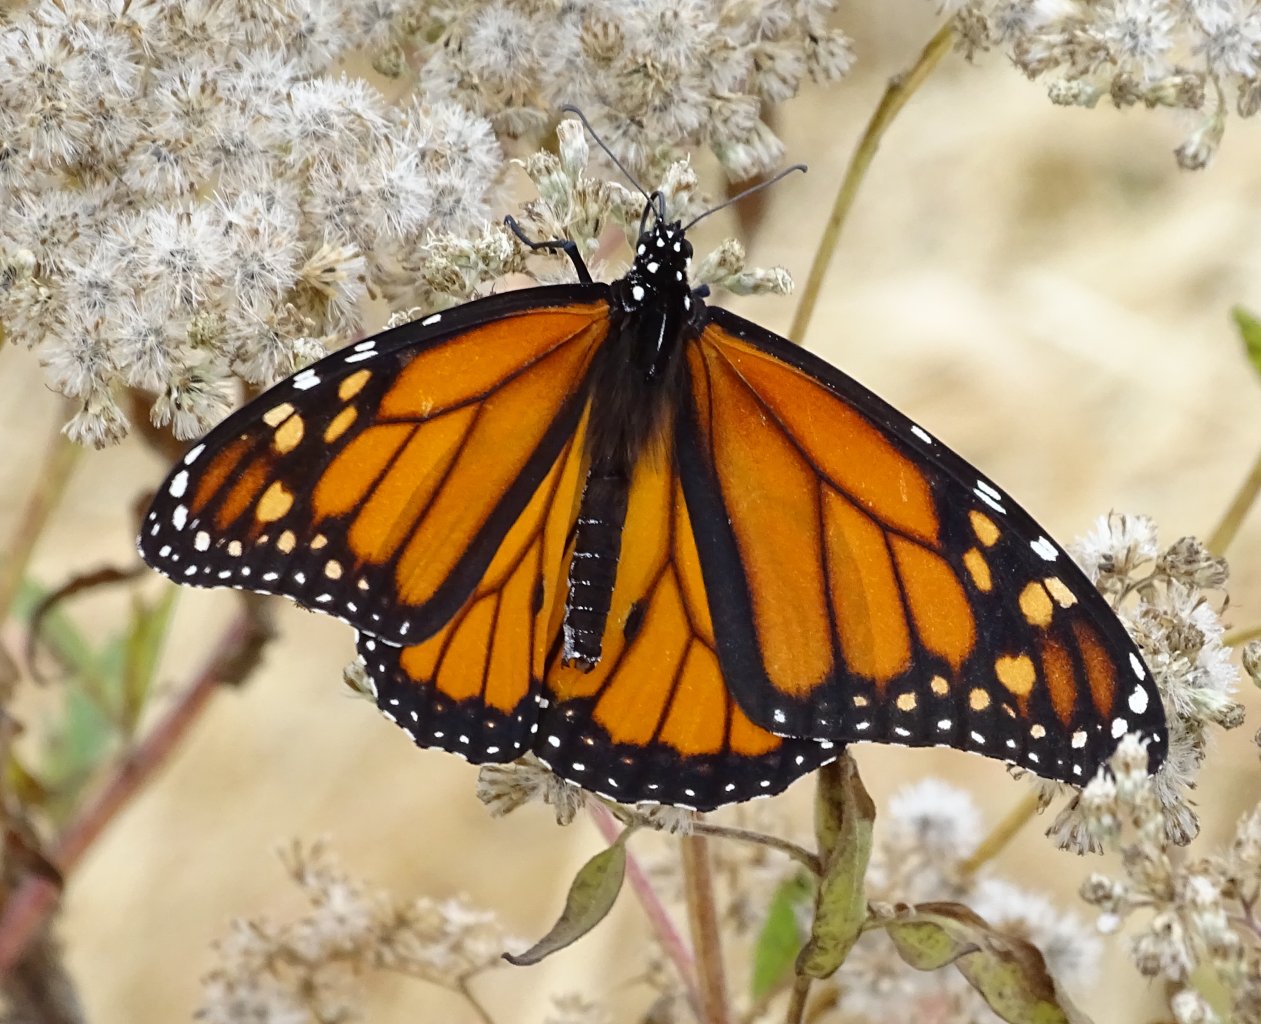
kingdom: Animalia
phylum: Arthropoda
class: Insecta
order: Lepidoptera
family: Nymphalidae
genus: Danaus
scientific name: Danaus plexippus
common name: Monarch
